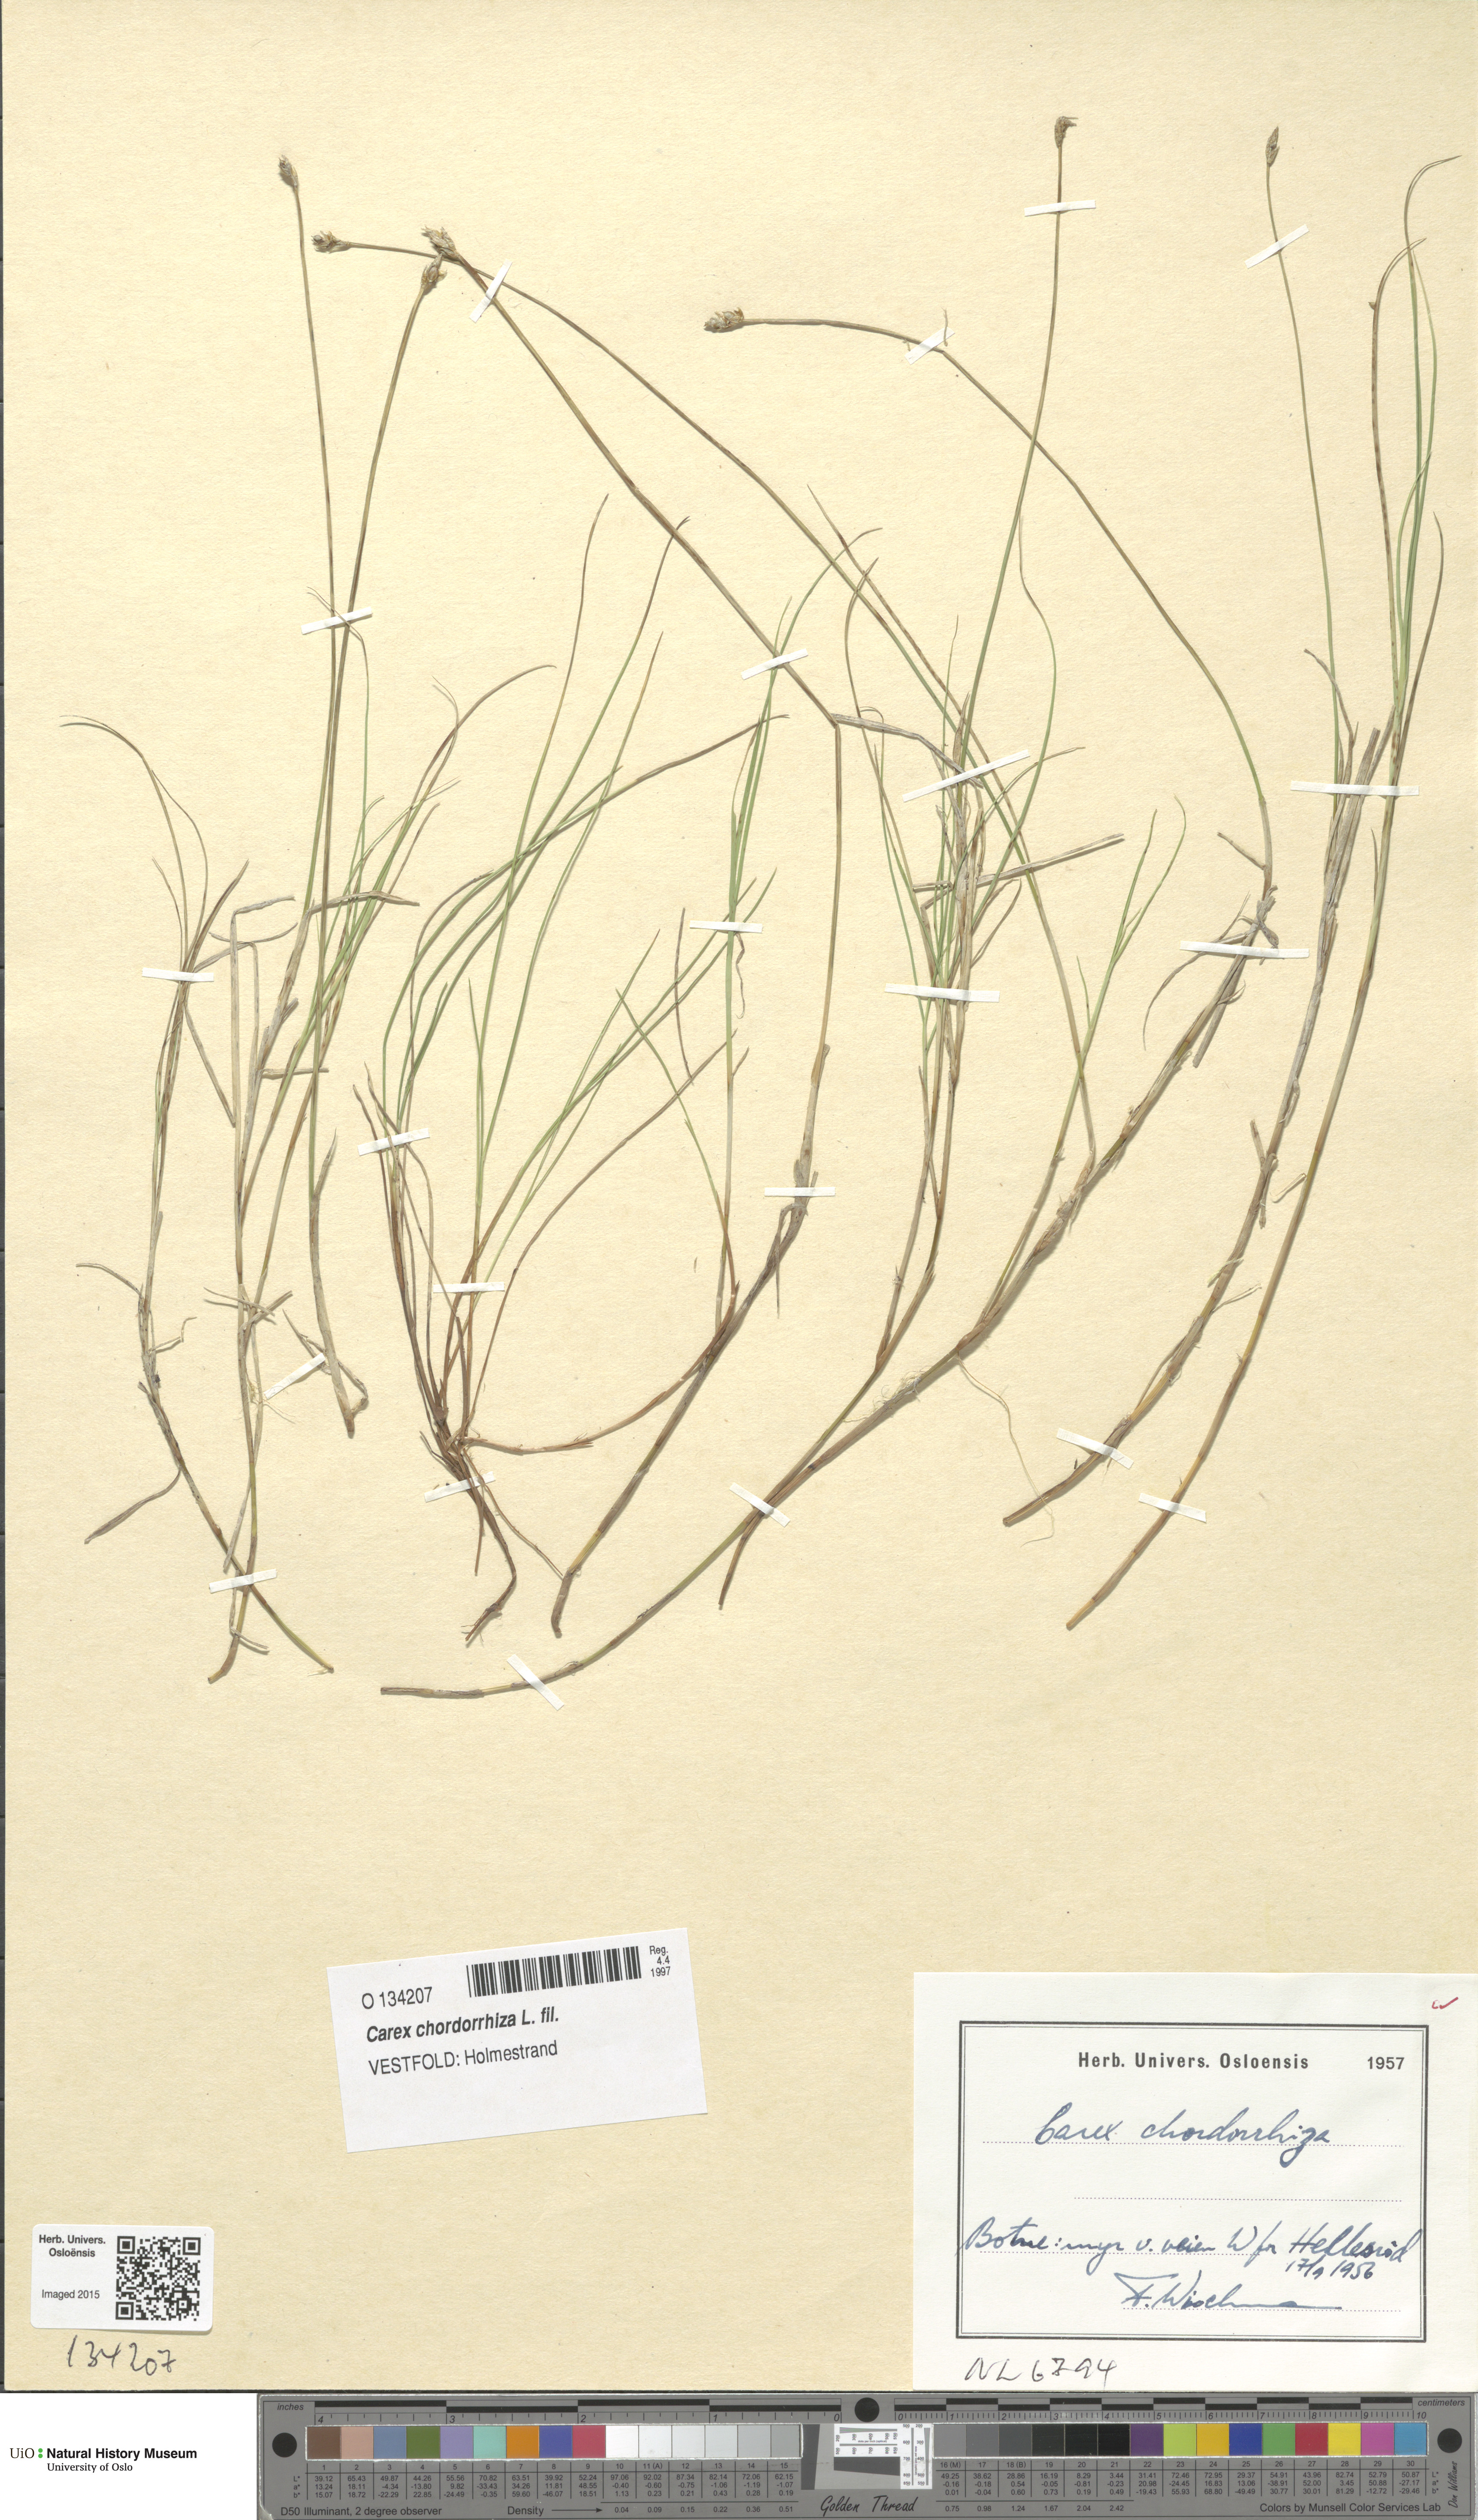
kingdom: Plantae
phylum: Tracheophyta
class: Liliopsida
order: Poales
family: Cyperaceae
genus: Carex
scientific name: Carex chordorrhiza
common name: String sedge
